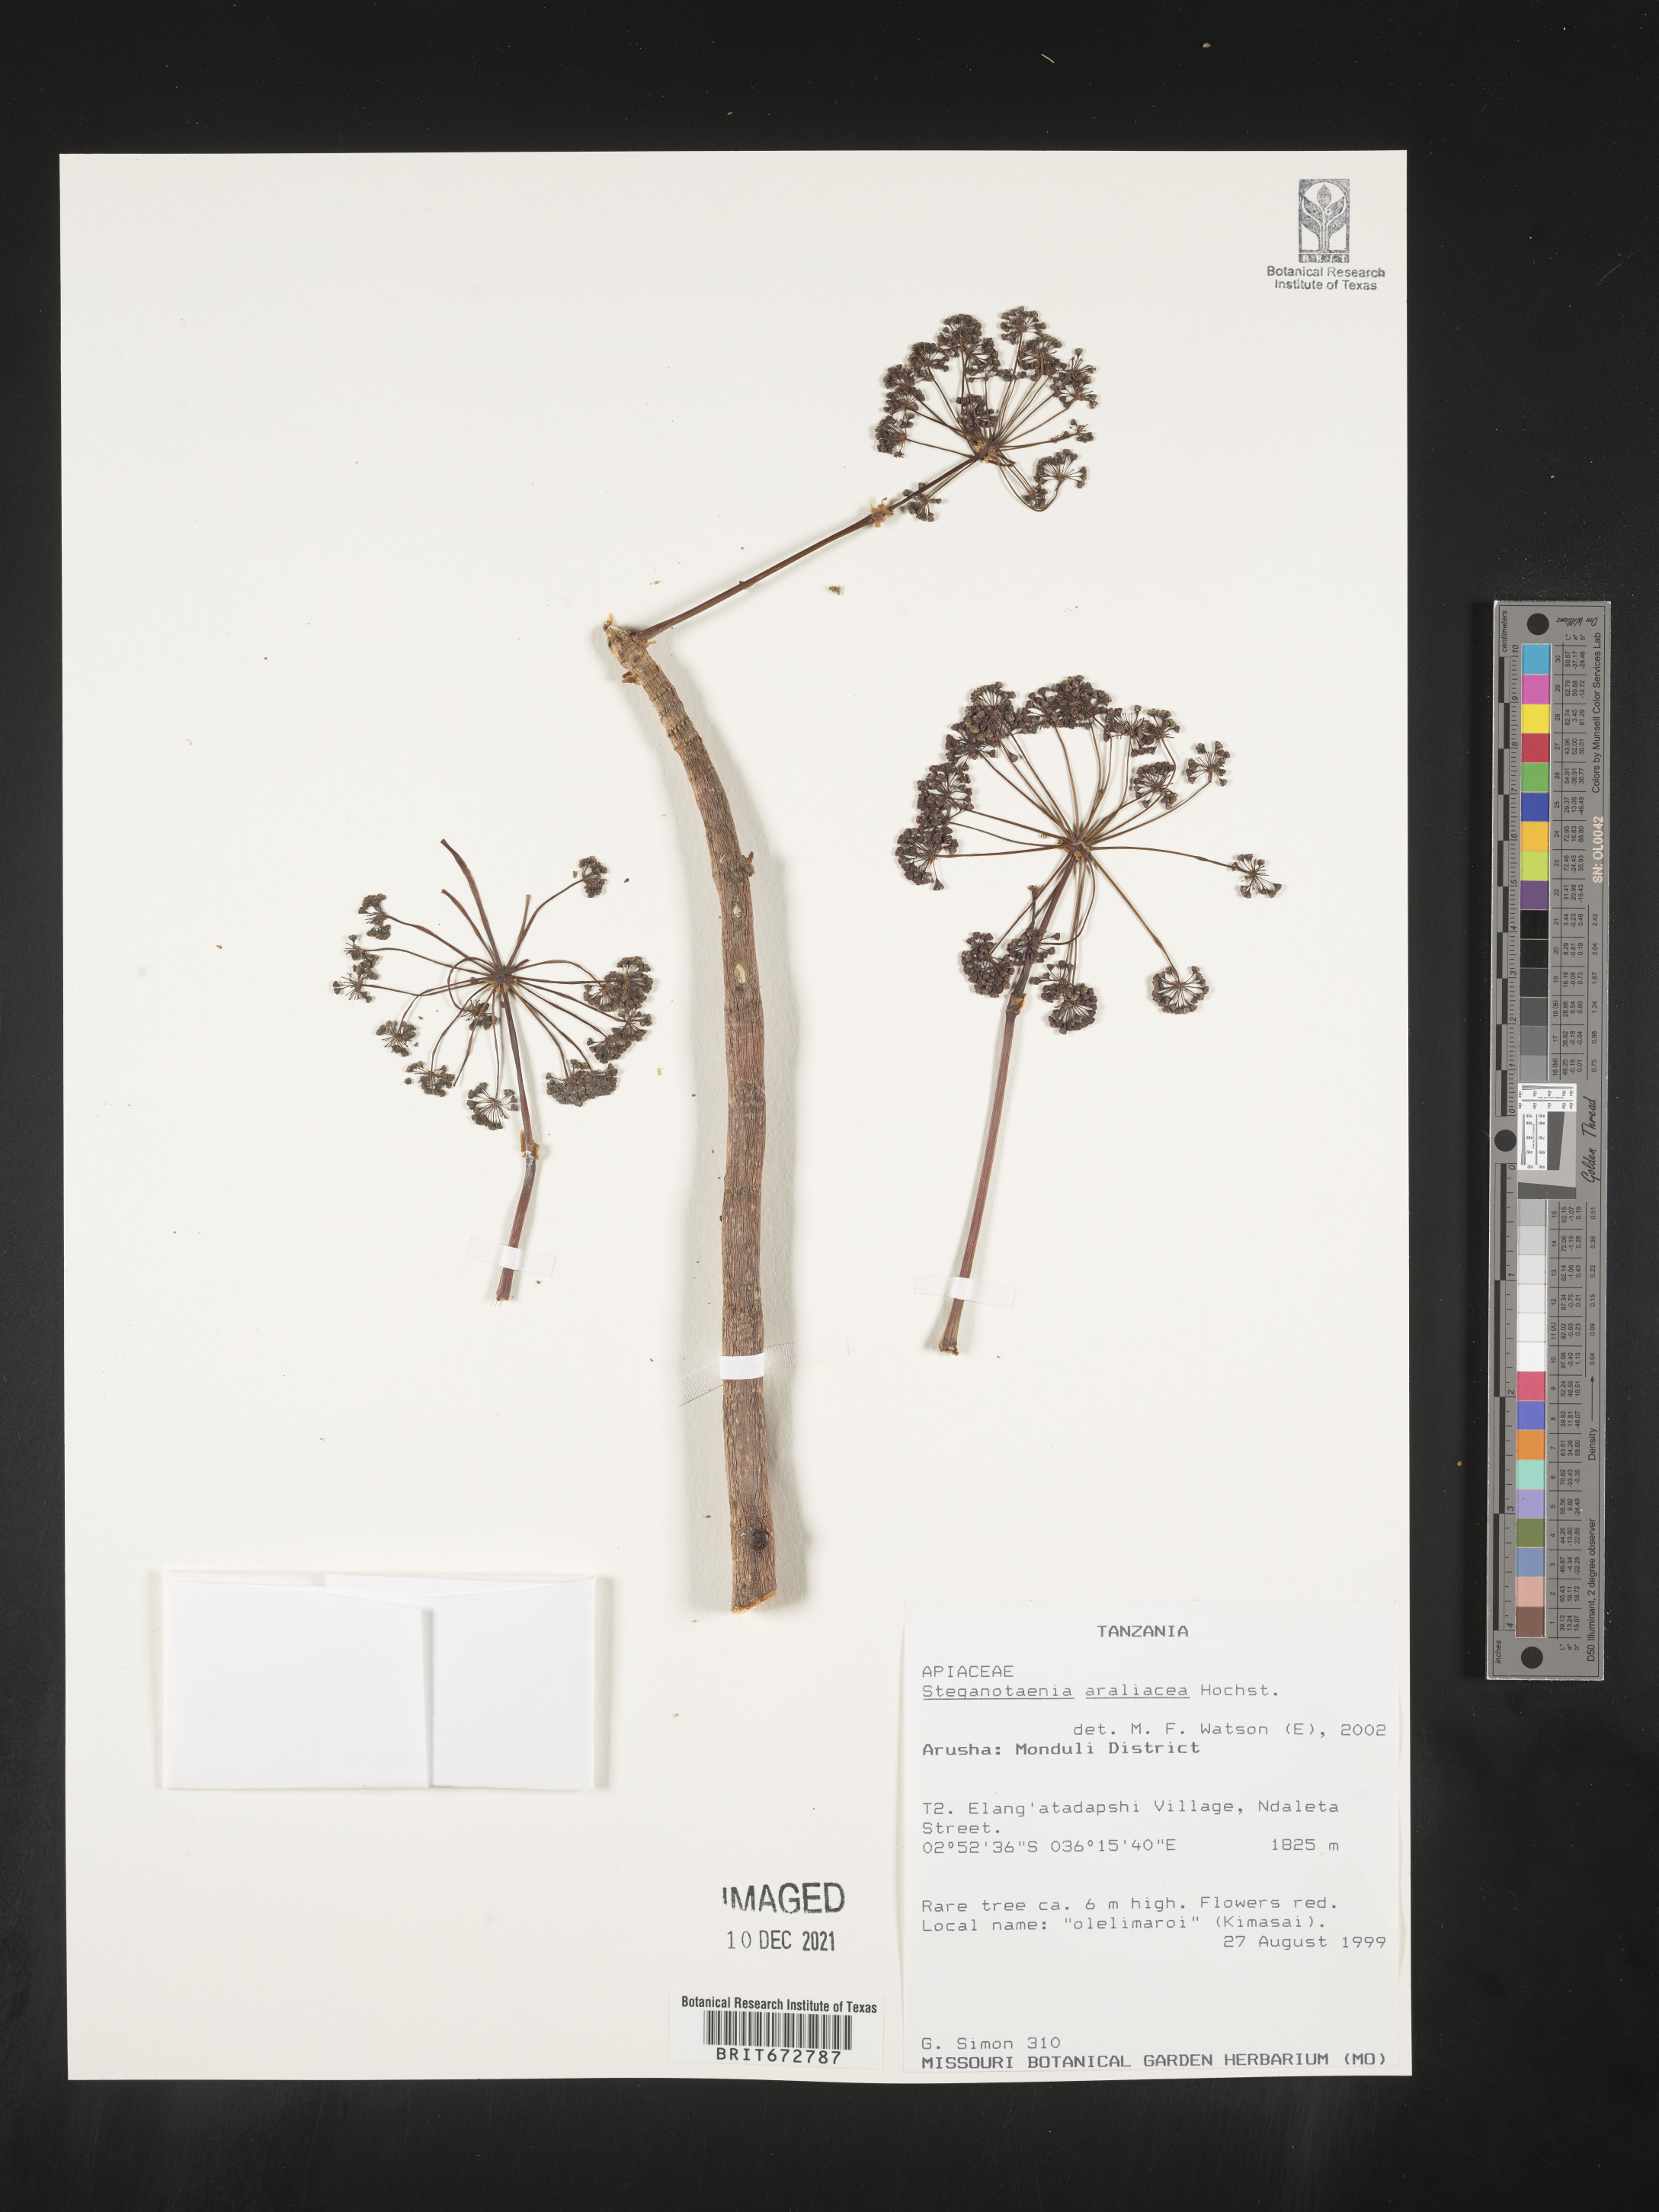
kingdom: Plantae
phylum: Tracheophyta
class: Magnoliopsida
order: Apiales
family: Apiaceae
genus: Steganotaenia
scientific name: Steganotaenia
